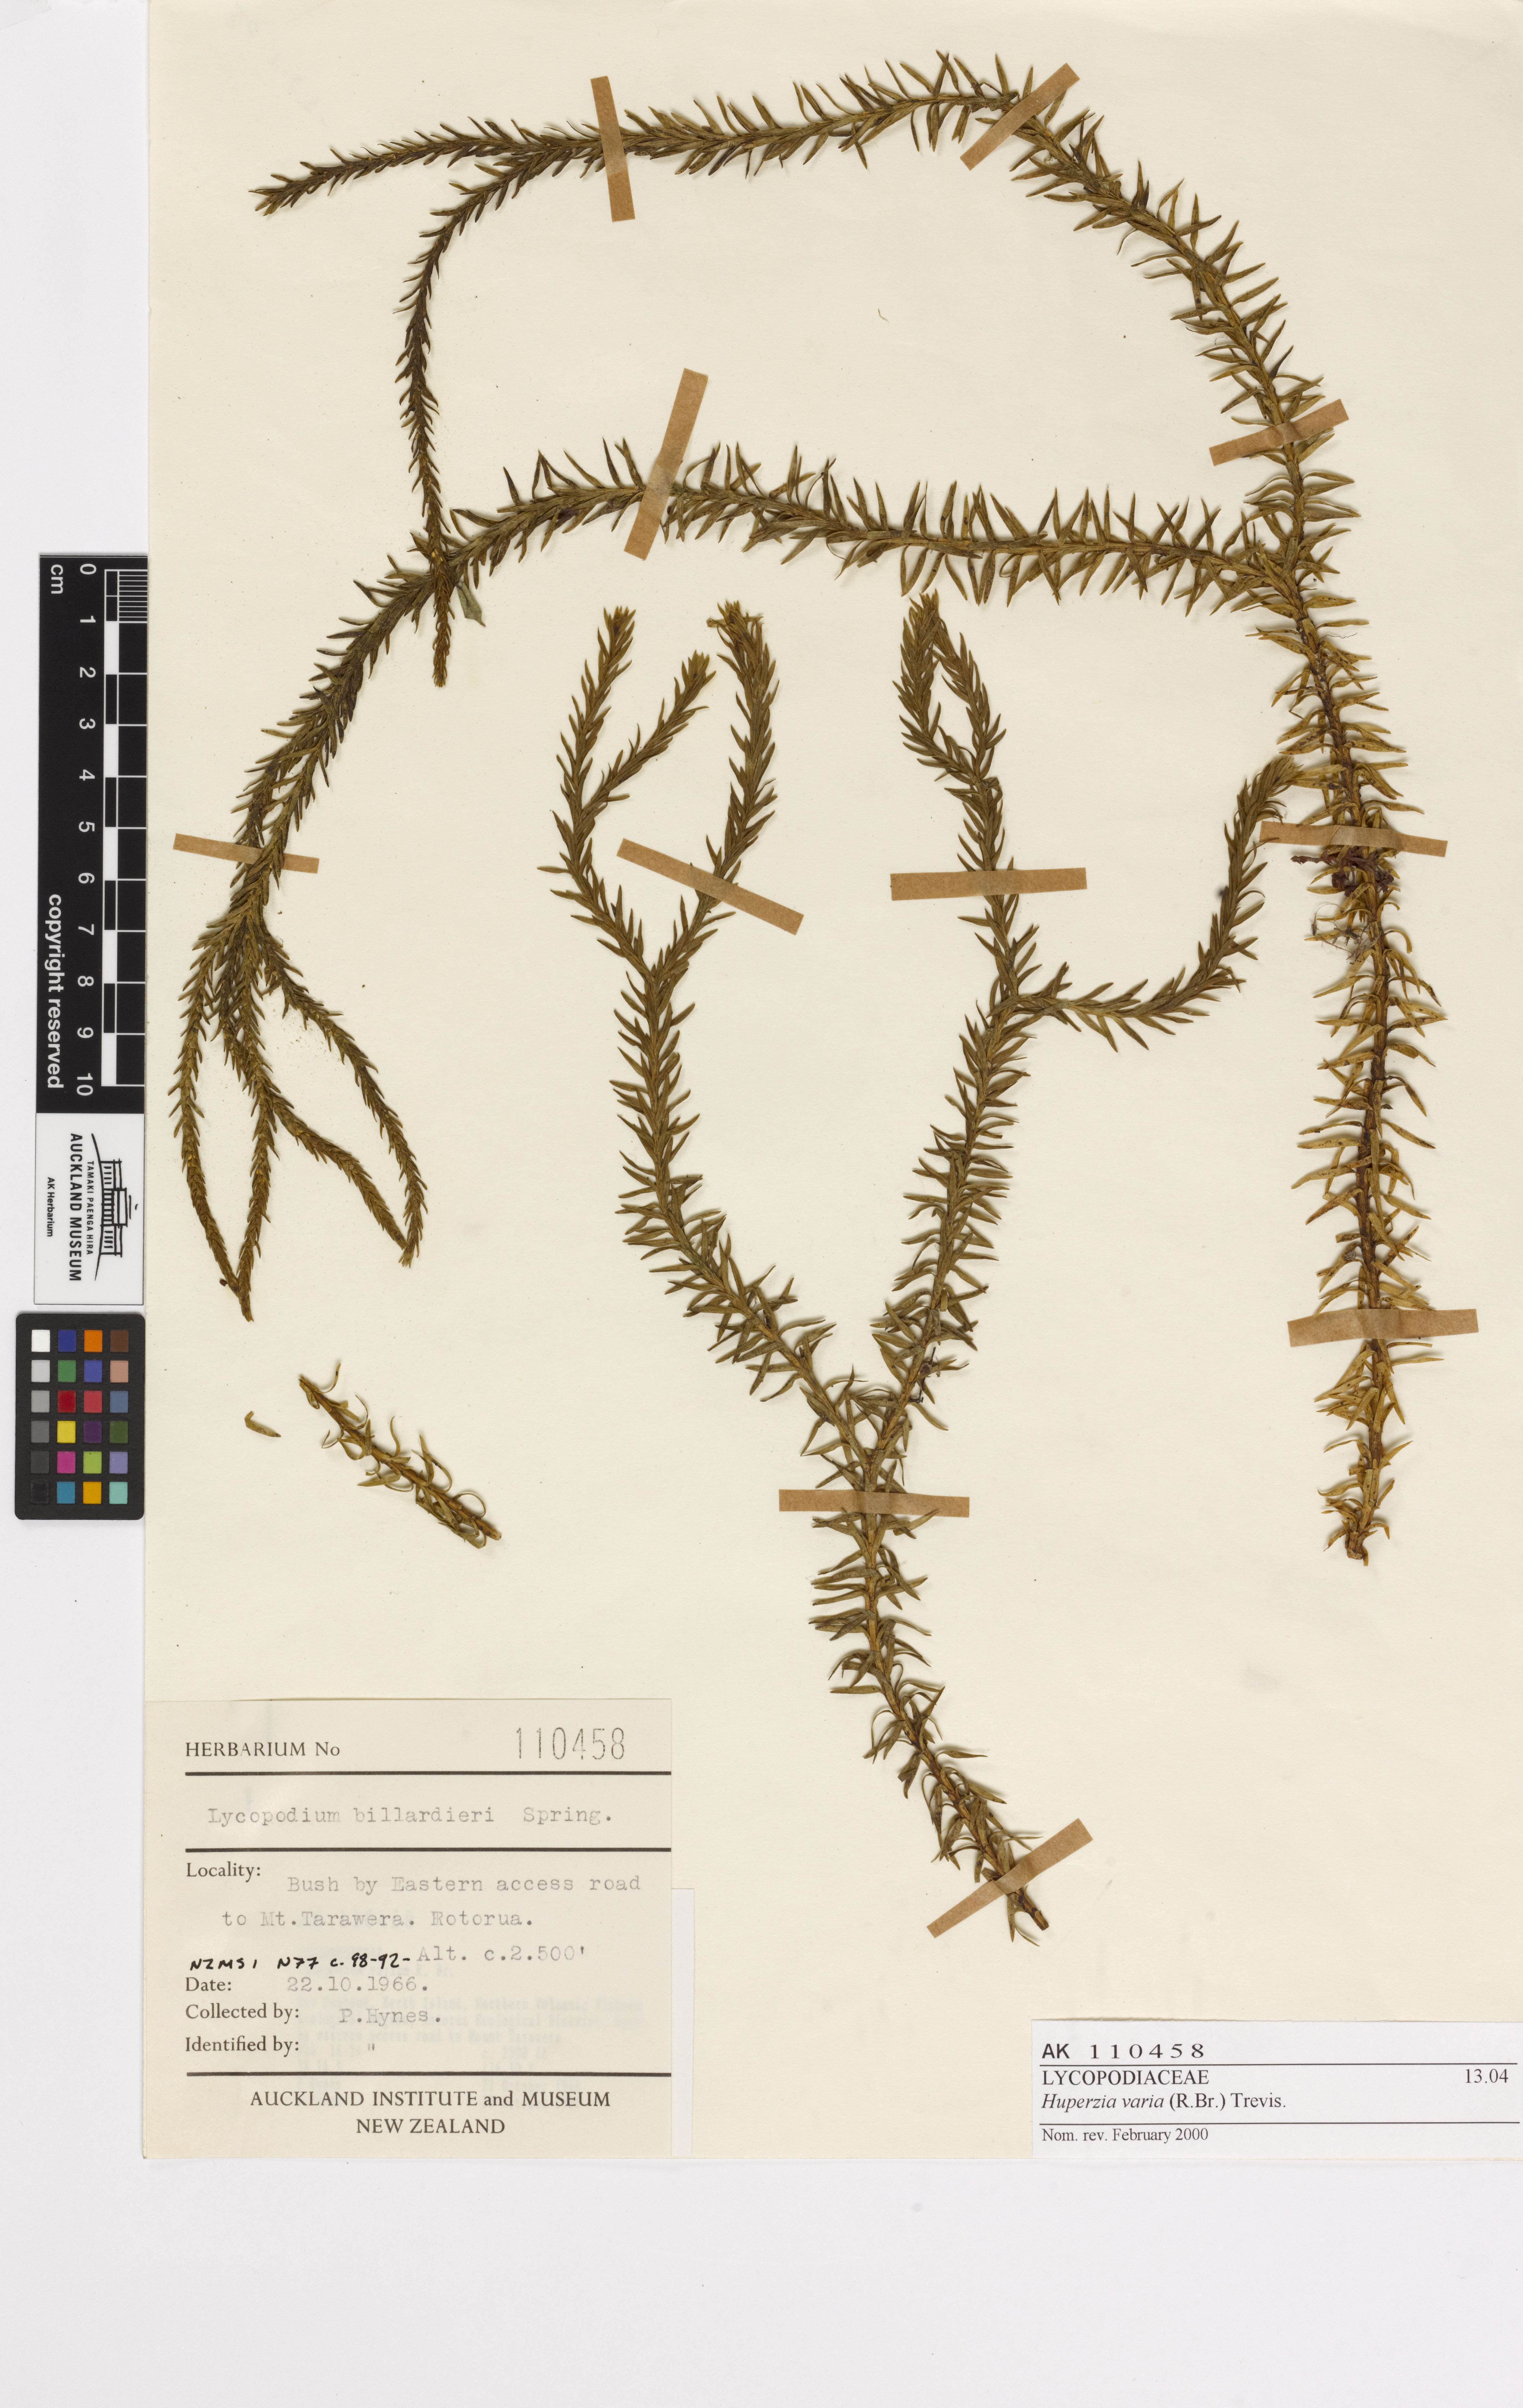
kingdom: Plantae
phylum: Tracheophyta
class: Lycopodiopsida
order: Lycopodiales
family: Lycopodiaceae
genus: Phlegmariurus
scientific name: Phlegmariurus varius
